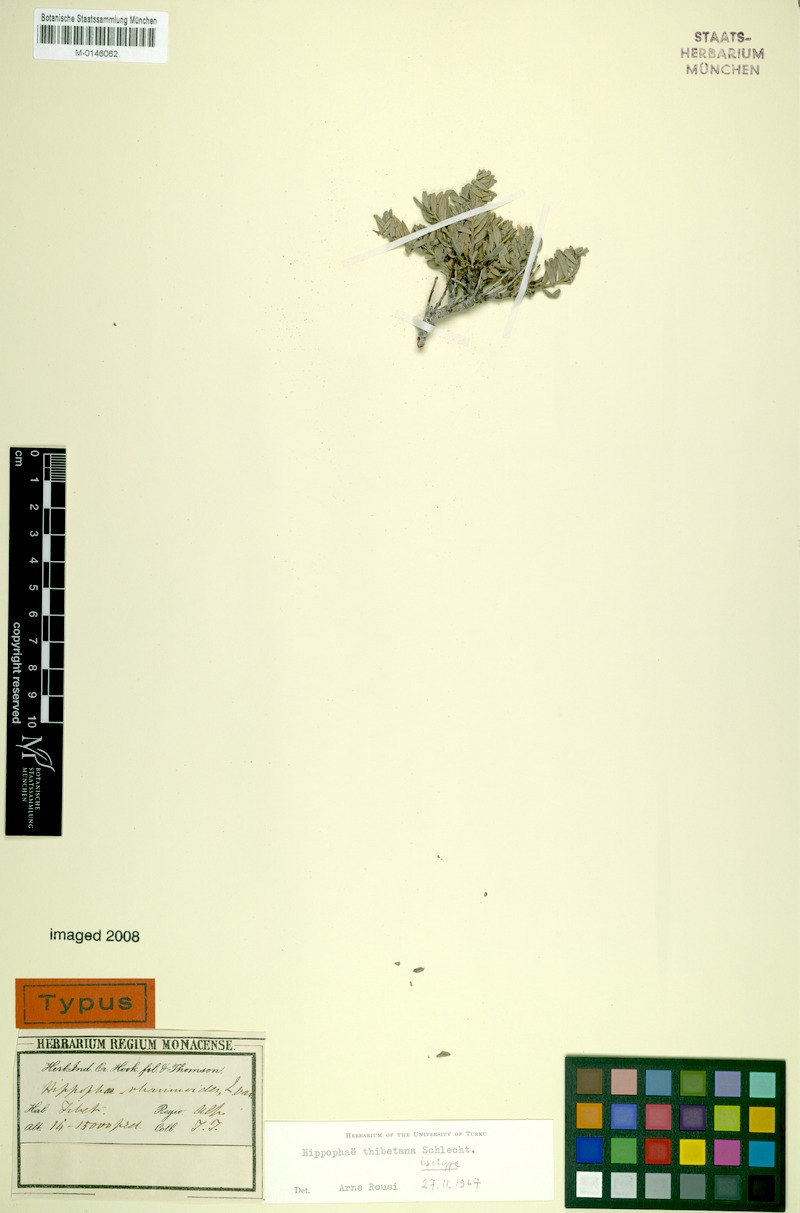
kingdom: Plantae
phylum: Tracheophyta
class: Magnoliopsida
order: Rosales
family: Elaeagnaceae
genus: Hippophae
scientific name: Hippophae tibetana
